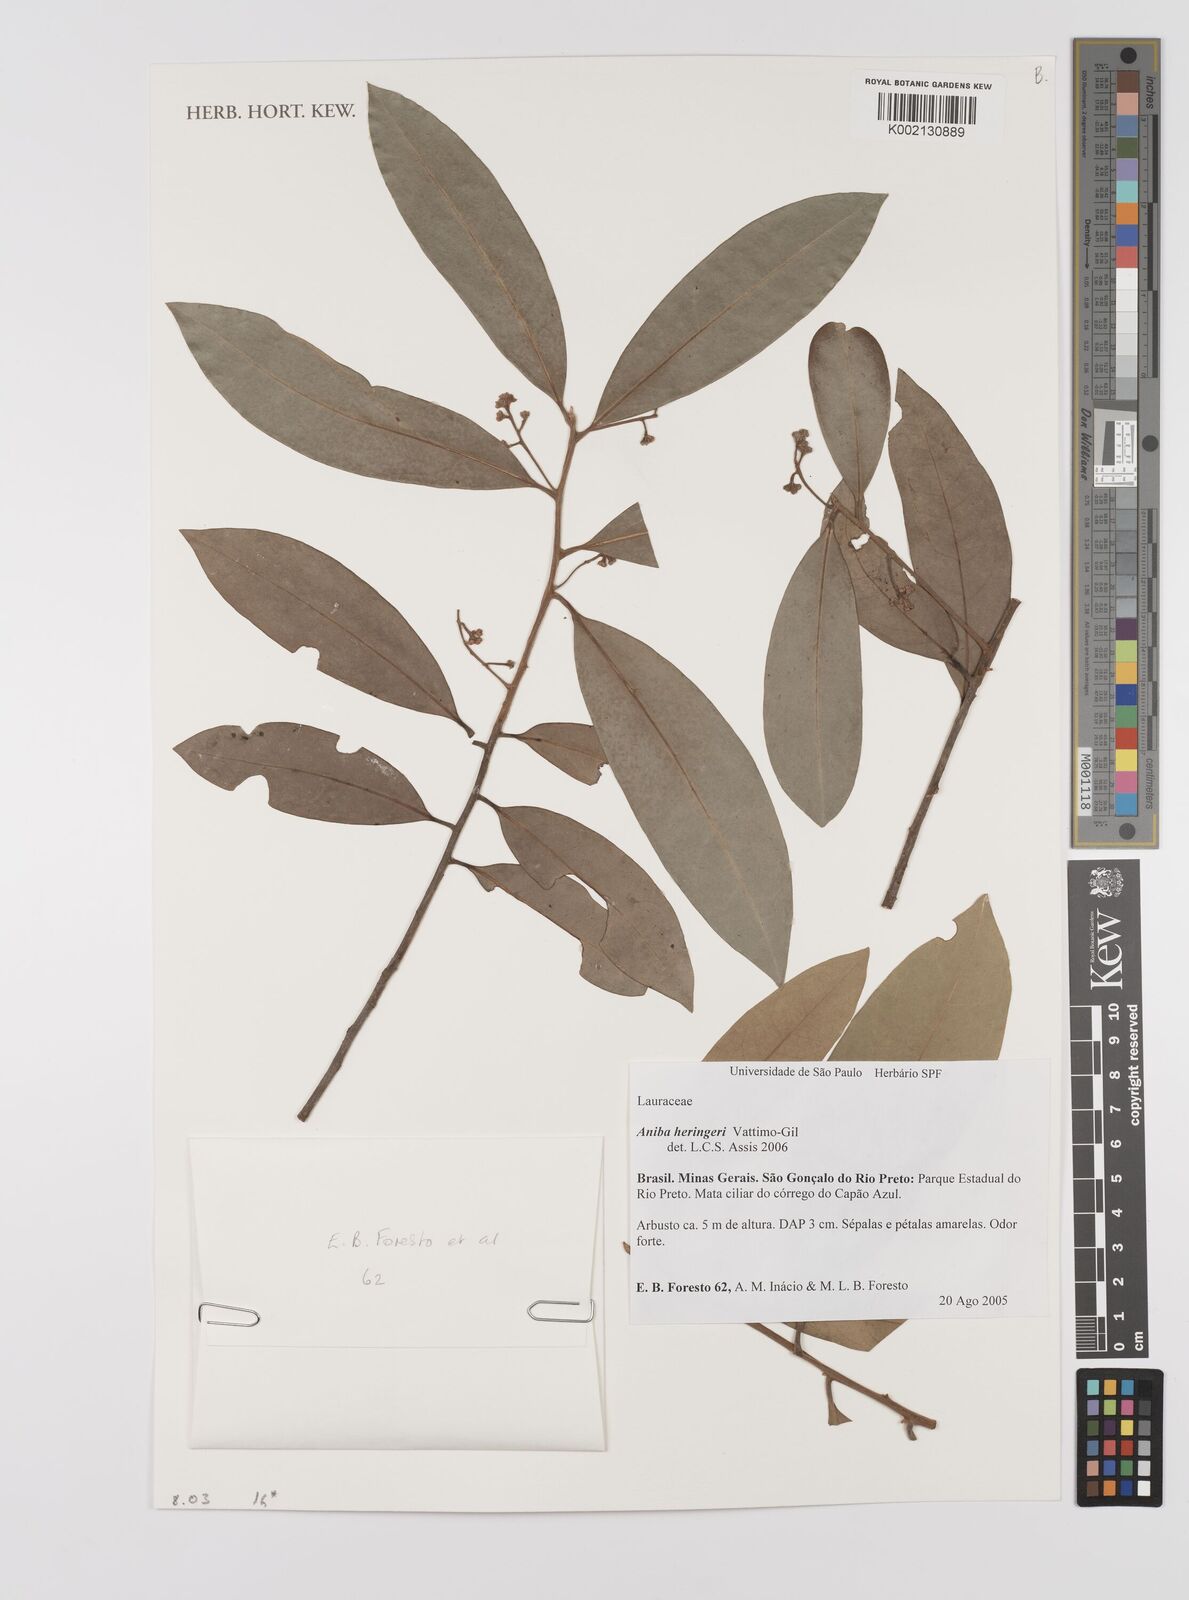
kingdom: Plantae
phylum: Tracheophyta
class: Magnoliopsida
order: Laurales
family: Lauraceae
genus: Aniba
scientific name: Aniba heringeri
